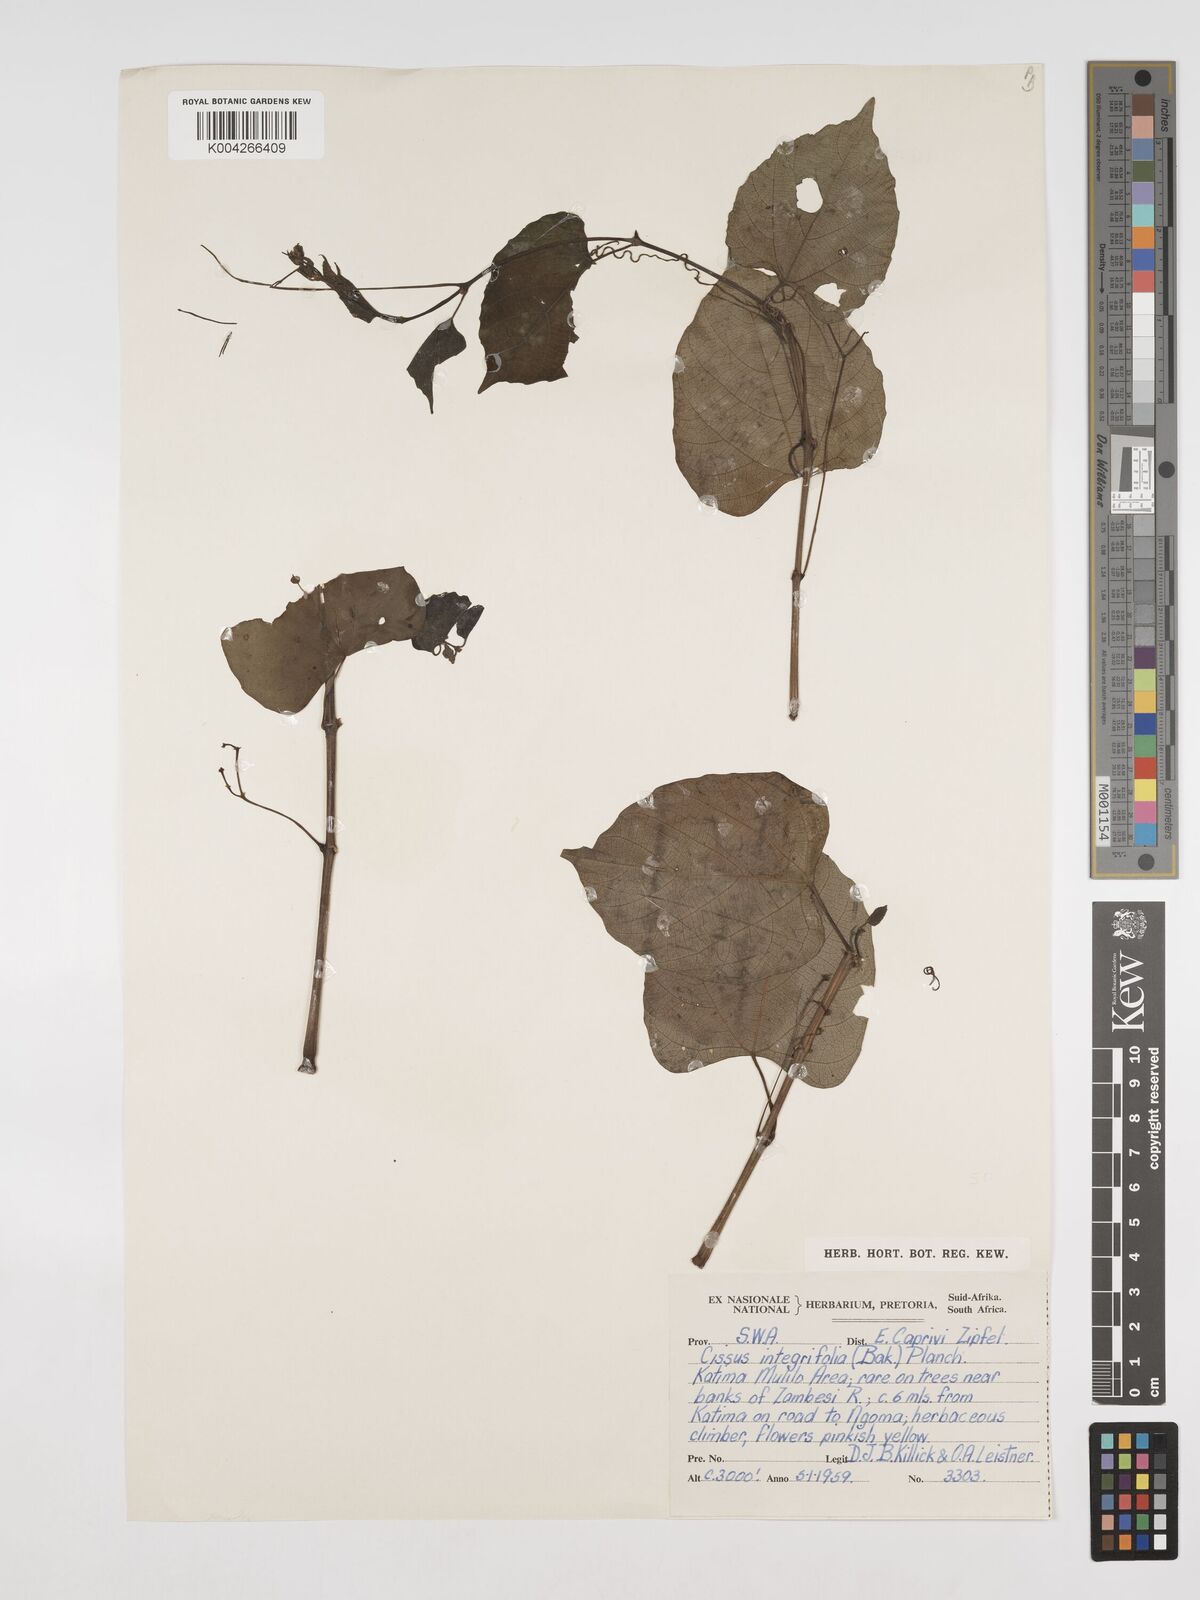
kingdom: Plantae
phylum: Tracheophyta
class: Magnoliopsida
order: Vitales
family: Vitaceae
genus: Cissus
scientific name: Cissus integrifolia
